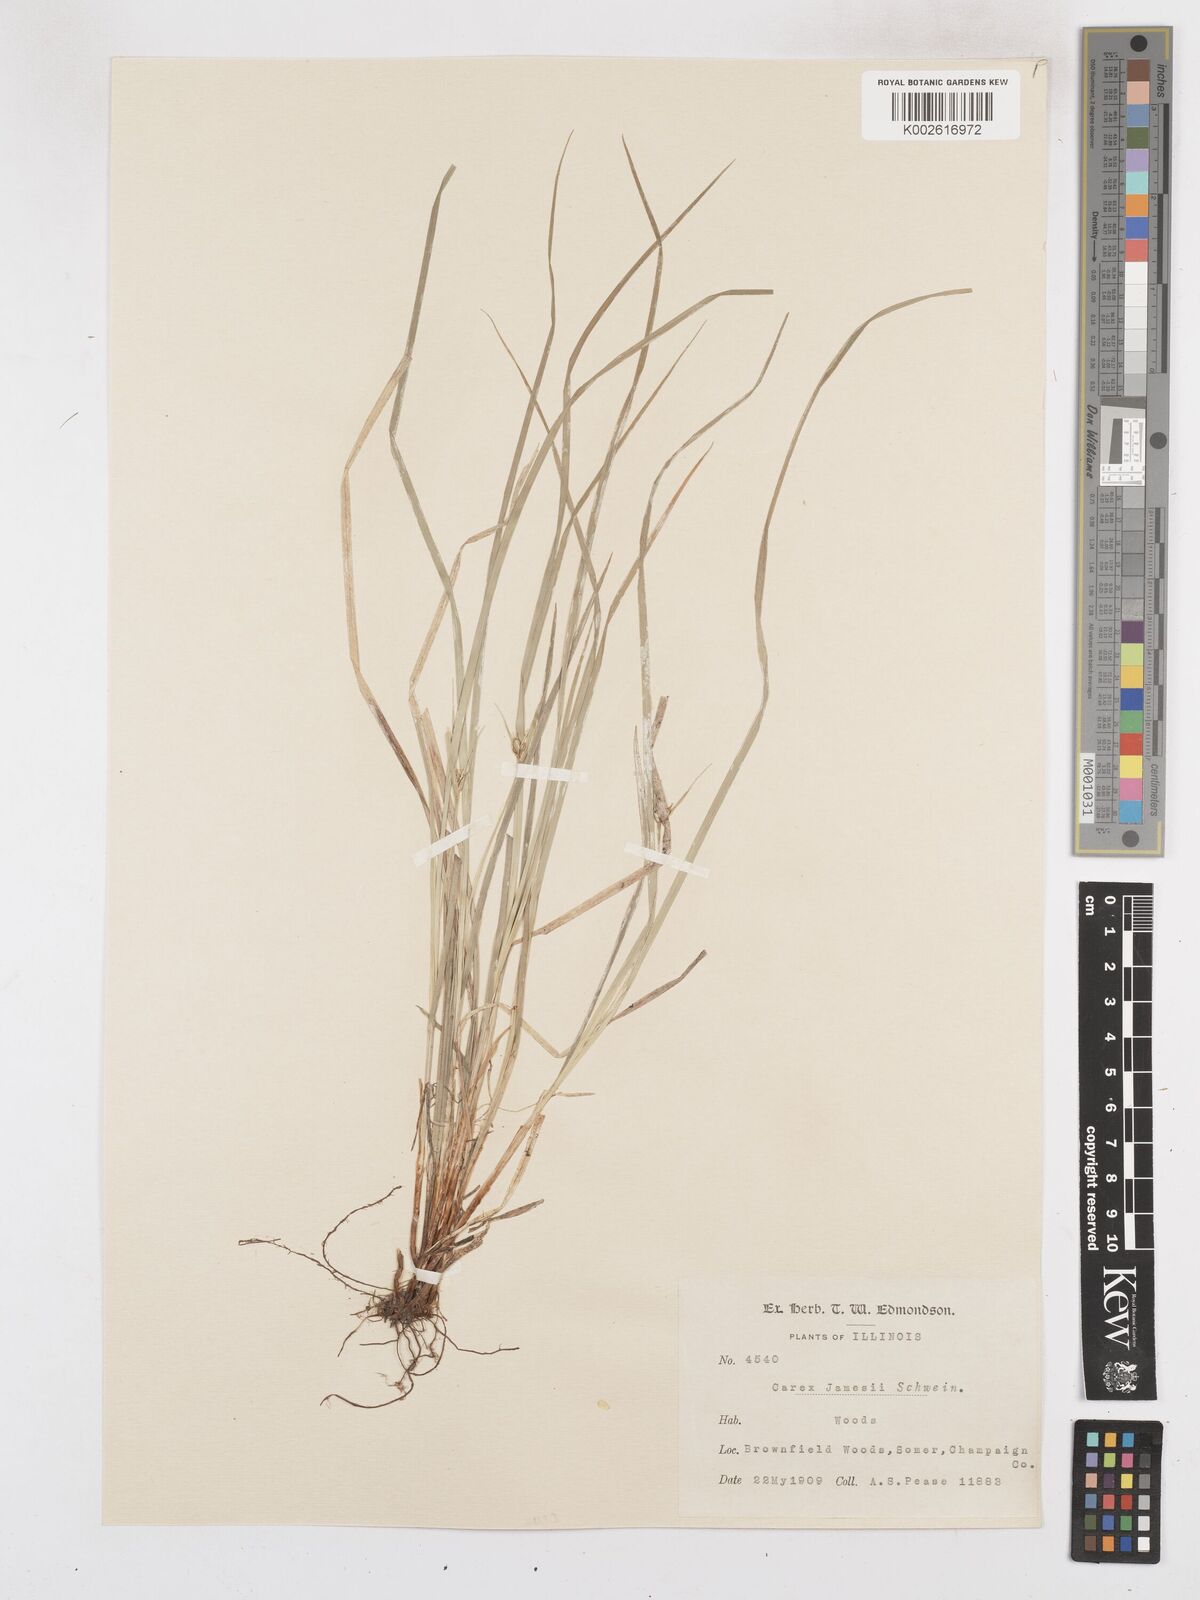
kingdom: Plantae
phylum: Tracheophyta
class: Liliopsida
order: Poales
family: Cyperaceae
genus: Carex
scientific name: Carex jamesii
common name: Grass sedge
